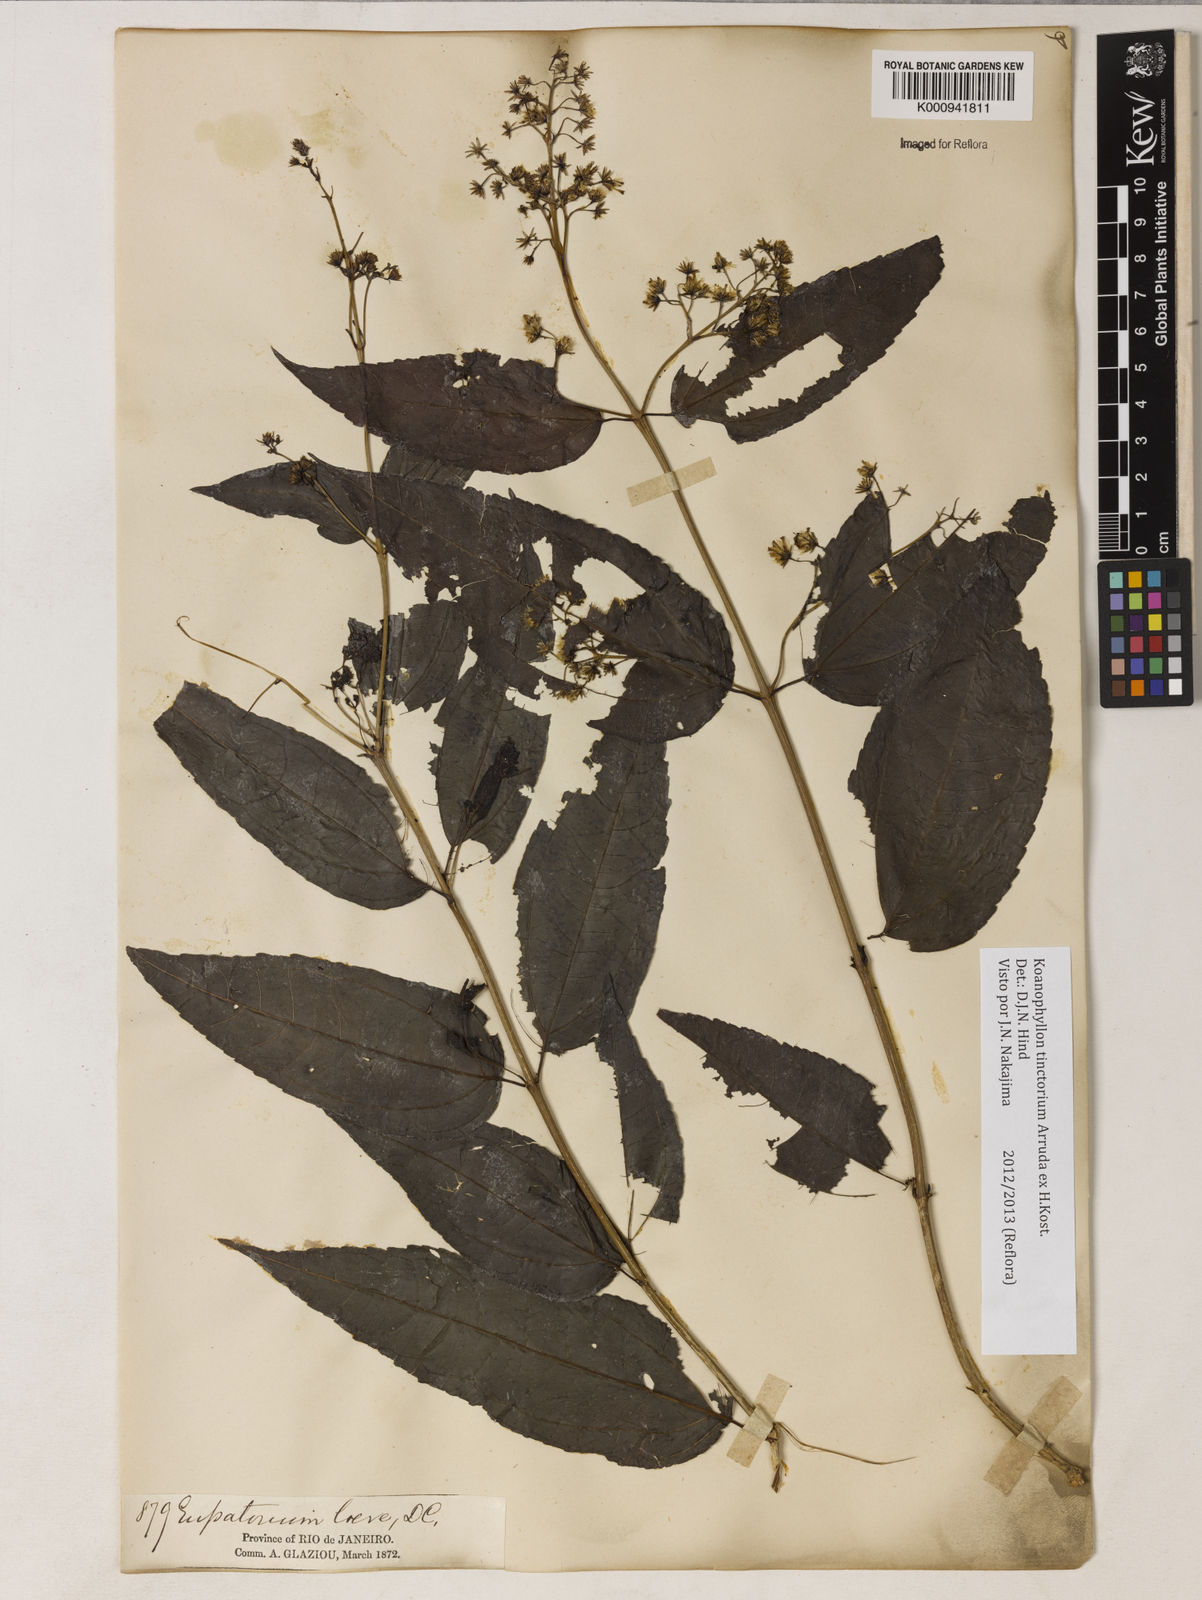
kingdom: Plantae
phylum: Tracheophyta
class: Magnoliopsida
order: Asterales
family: Asteraceae
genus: Koanophyllon
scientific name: Koanophyllon
